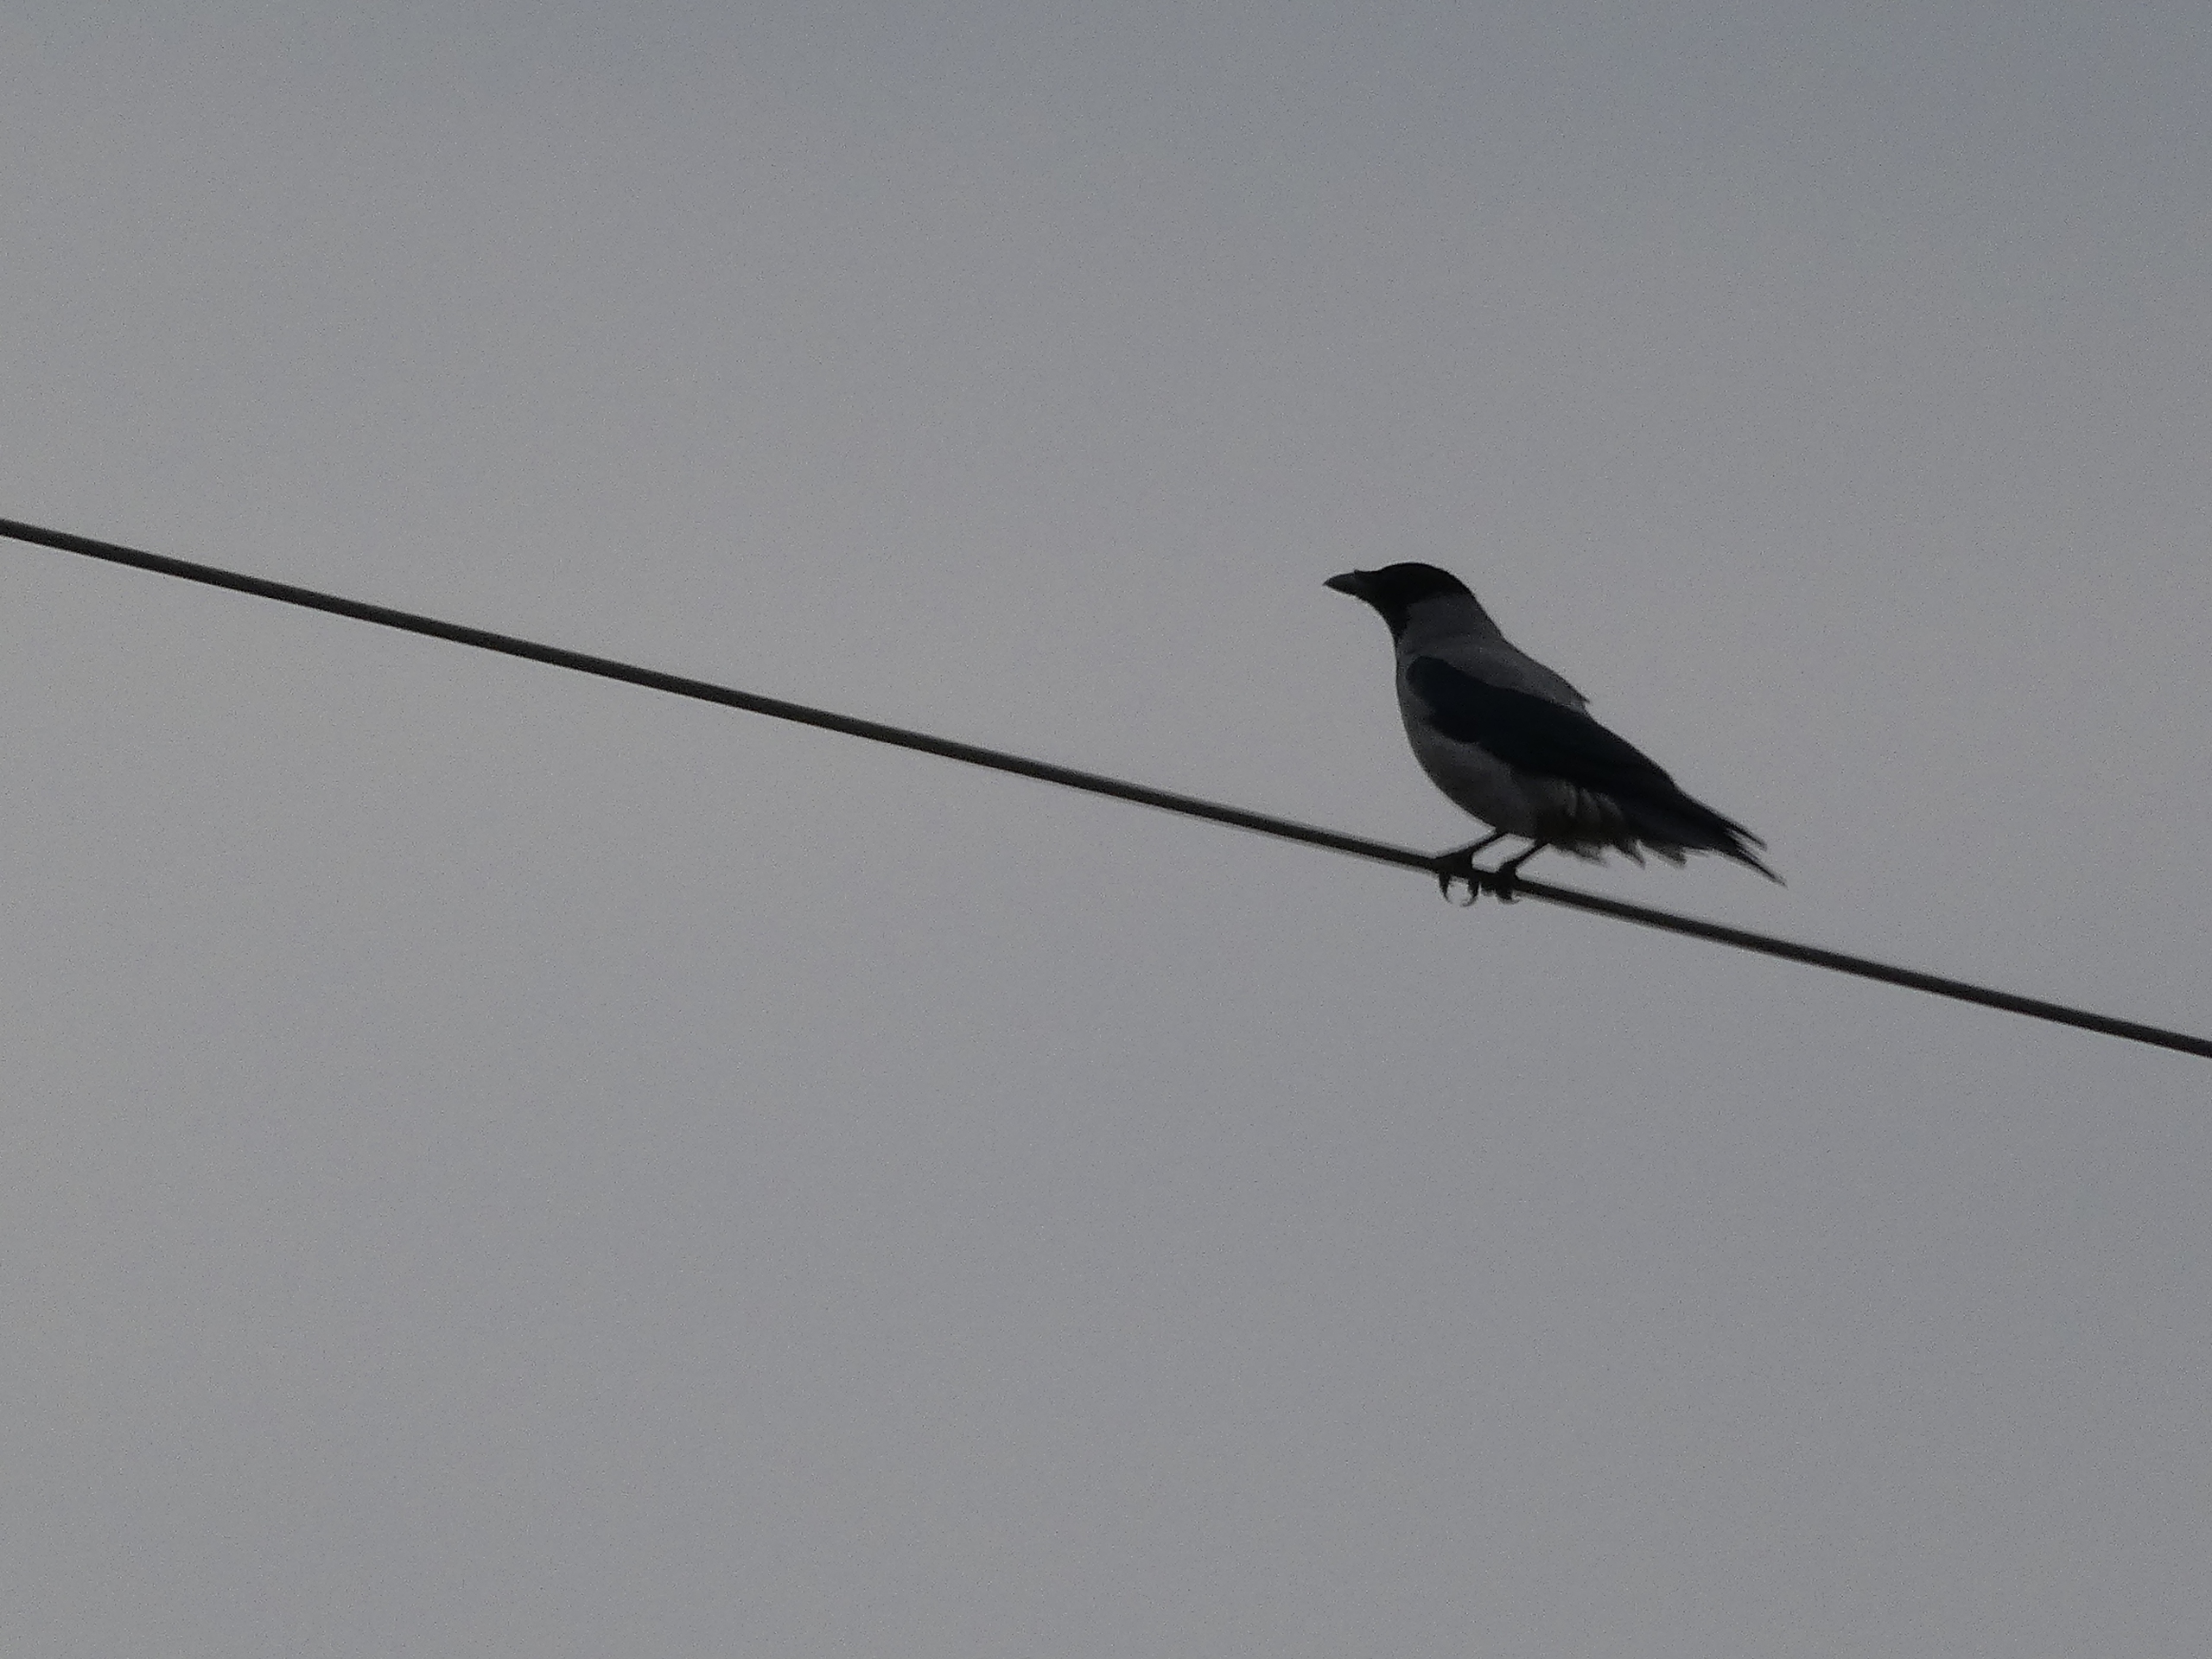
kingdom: Animalia
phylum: Chordata
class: Aves
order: Passeriformes
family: Corvidae
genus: Corvus
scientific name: Corvus cornix
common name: Gråkrage
